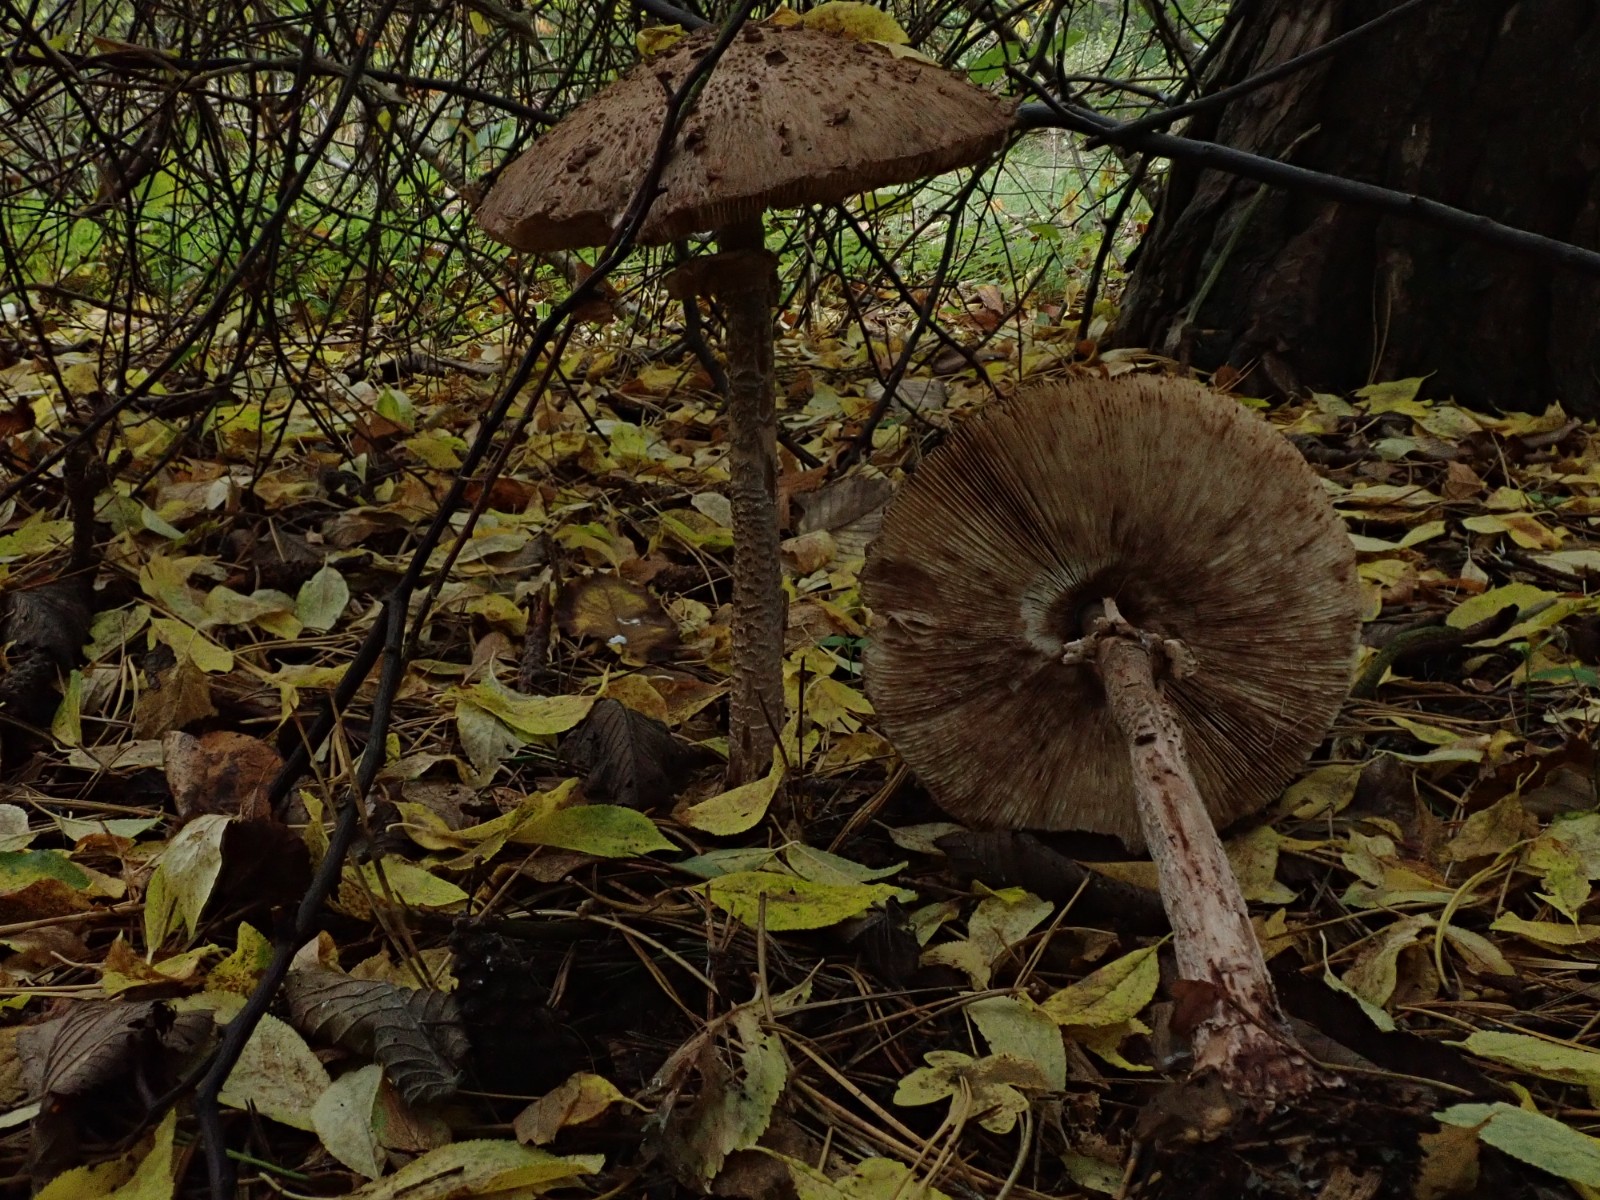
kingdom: Fungi
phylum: Basidiomycota
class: Agaricomycetes
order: Agaricales
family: Agaricaceae
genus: Macrolepiota
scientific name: Macrolepiota fuliginosa
